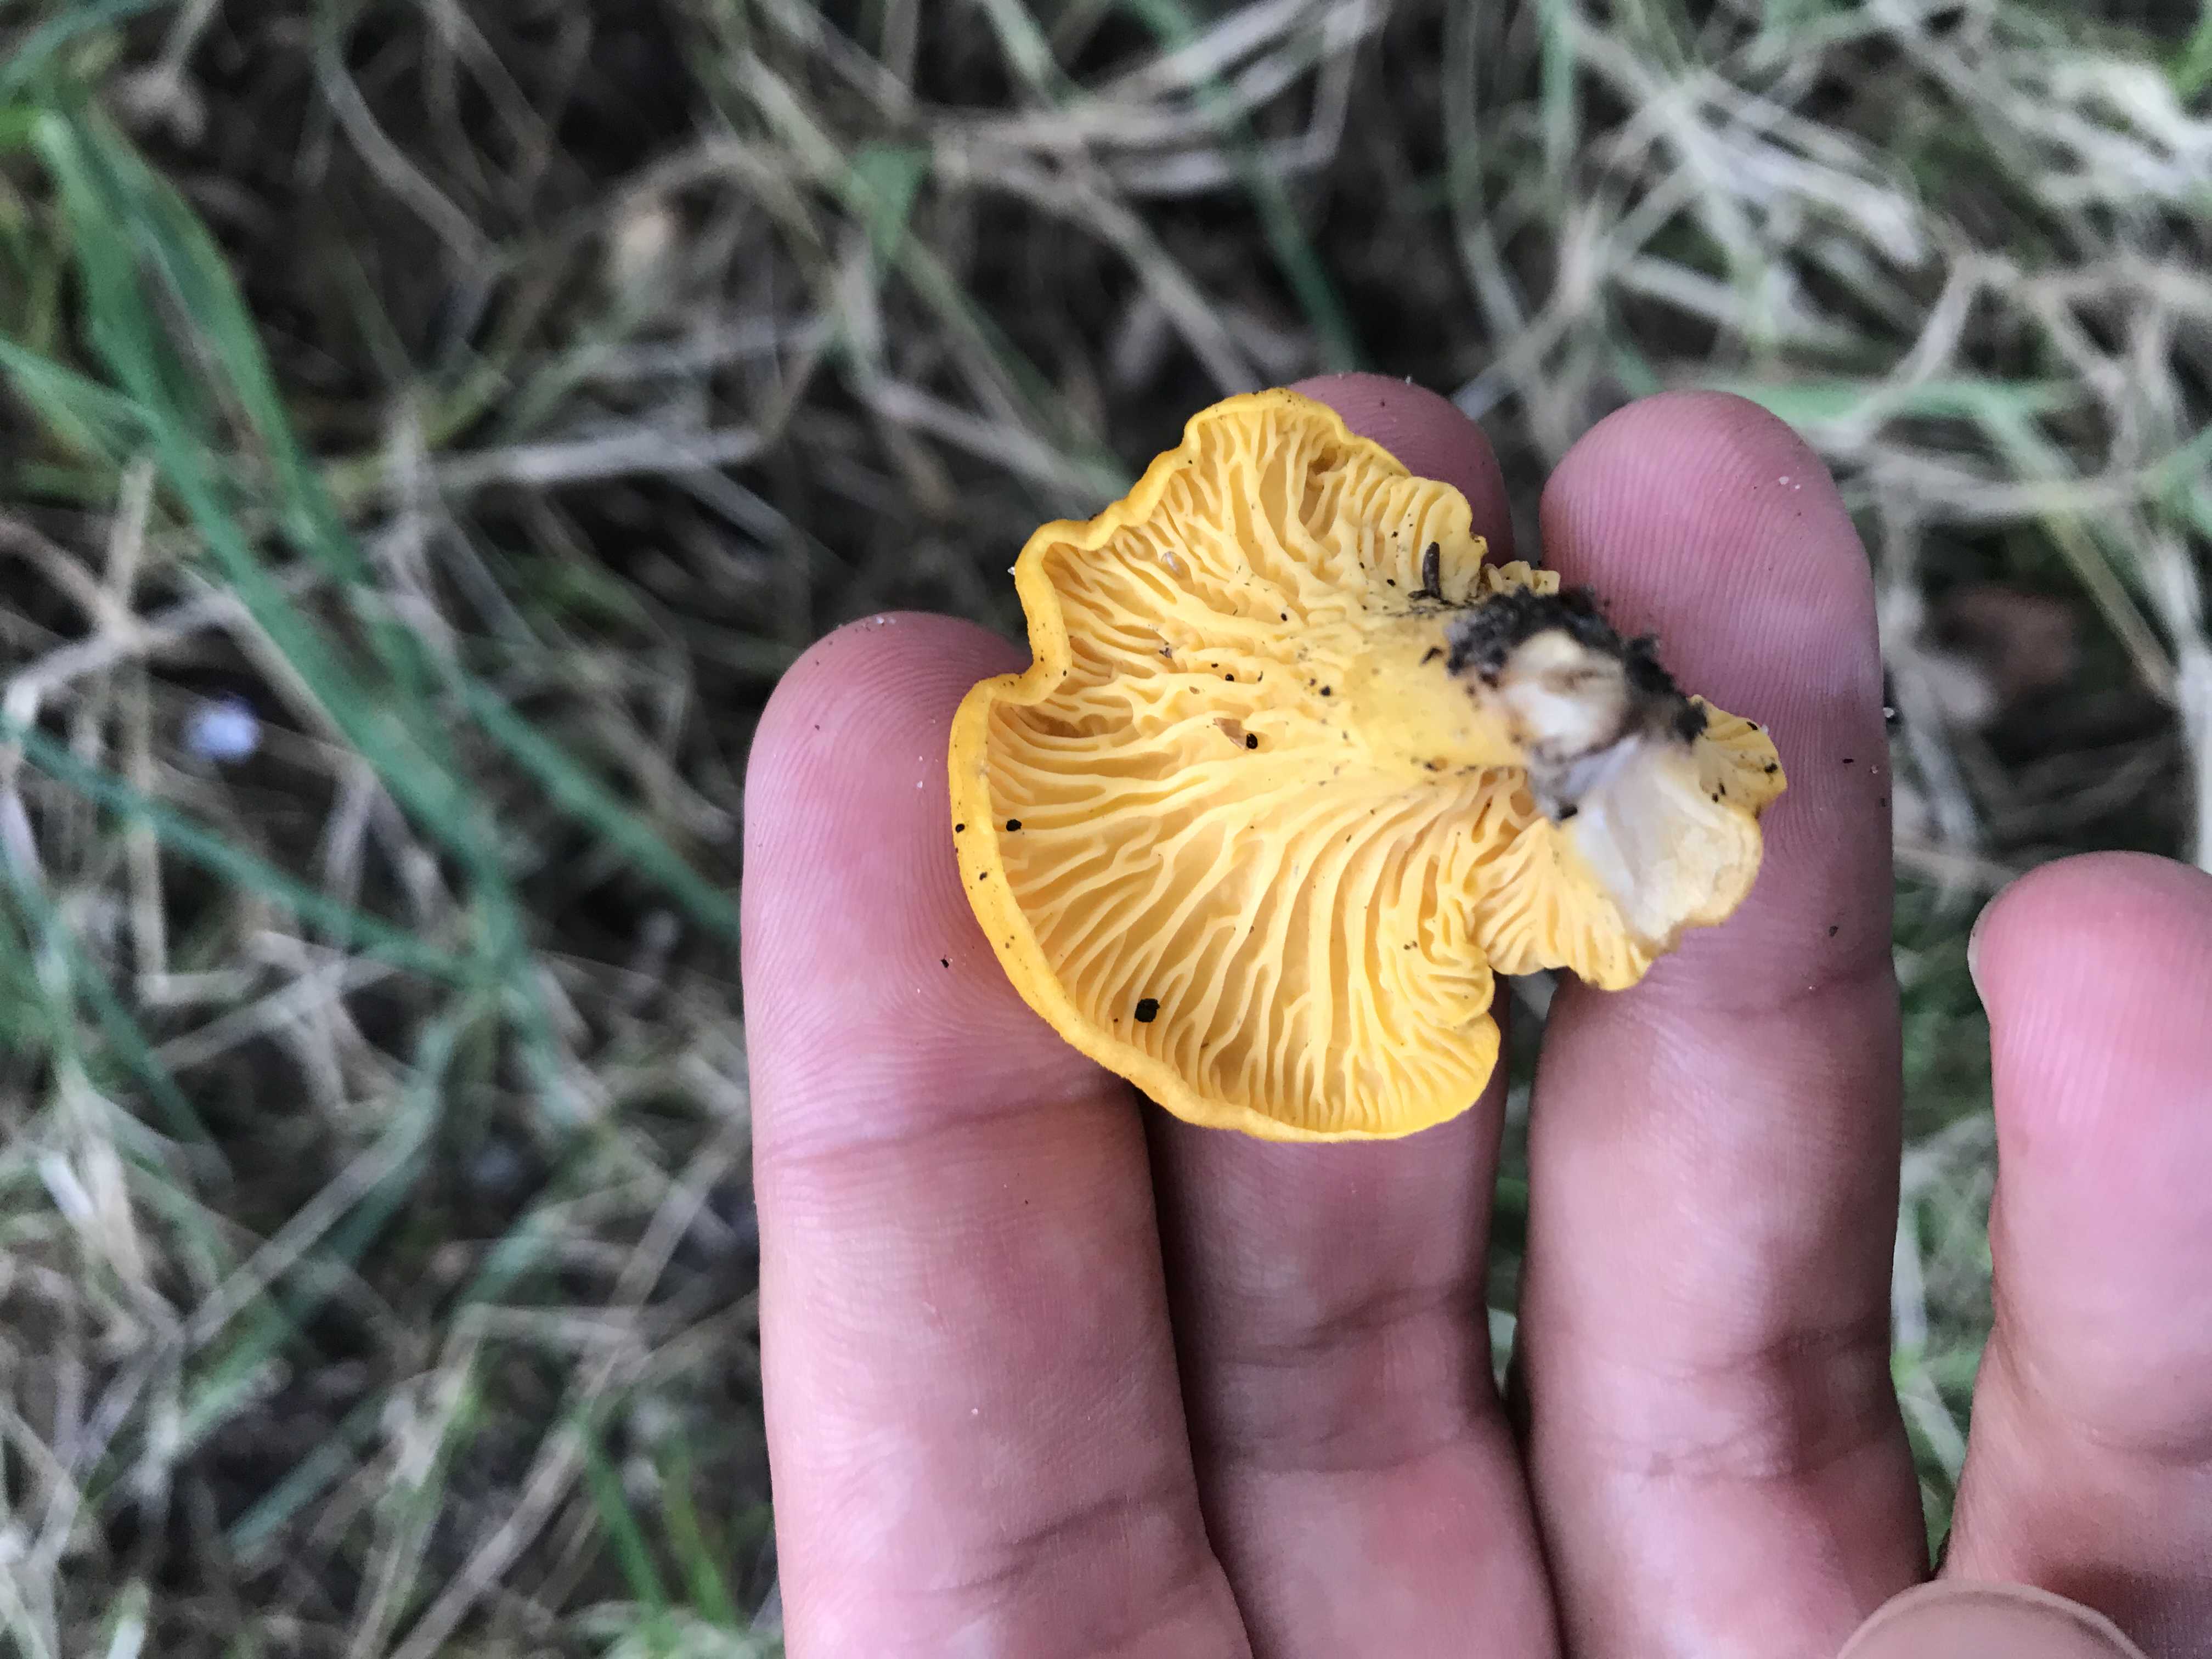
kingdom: Fungi
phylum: Basidiomycota
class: Agaricomycetes
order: Cantharellales
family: Hydnaceae
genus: Cantharellus
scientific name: Cantharellus cibarius
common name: almindelig kantarel
